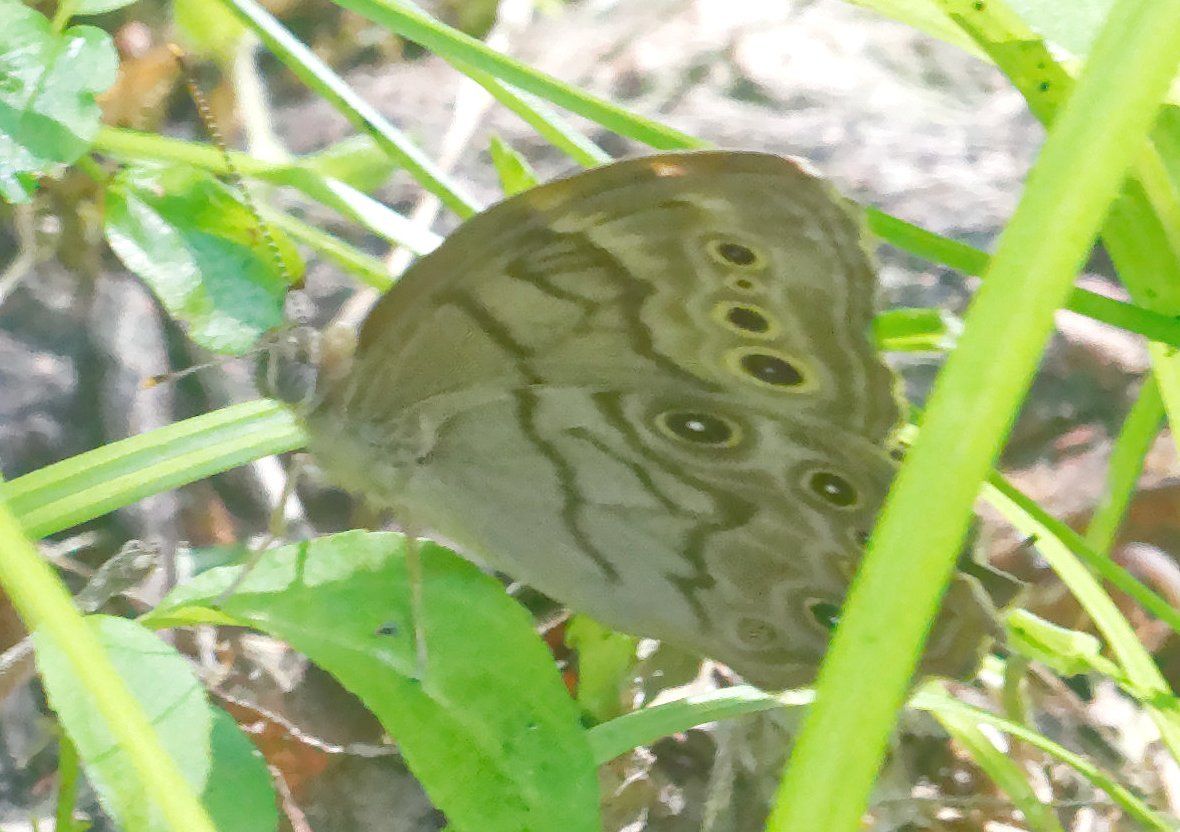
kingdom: Animalia
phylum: Arthropoda
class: Insecta
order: Lepidoptera
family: Nymphalidae
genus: Lethe
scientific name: Lethe anthedon
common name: Northern Pearly-Eye
